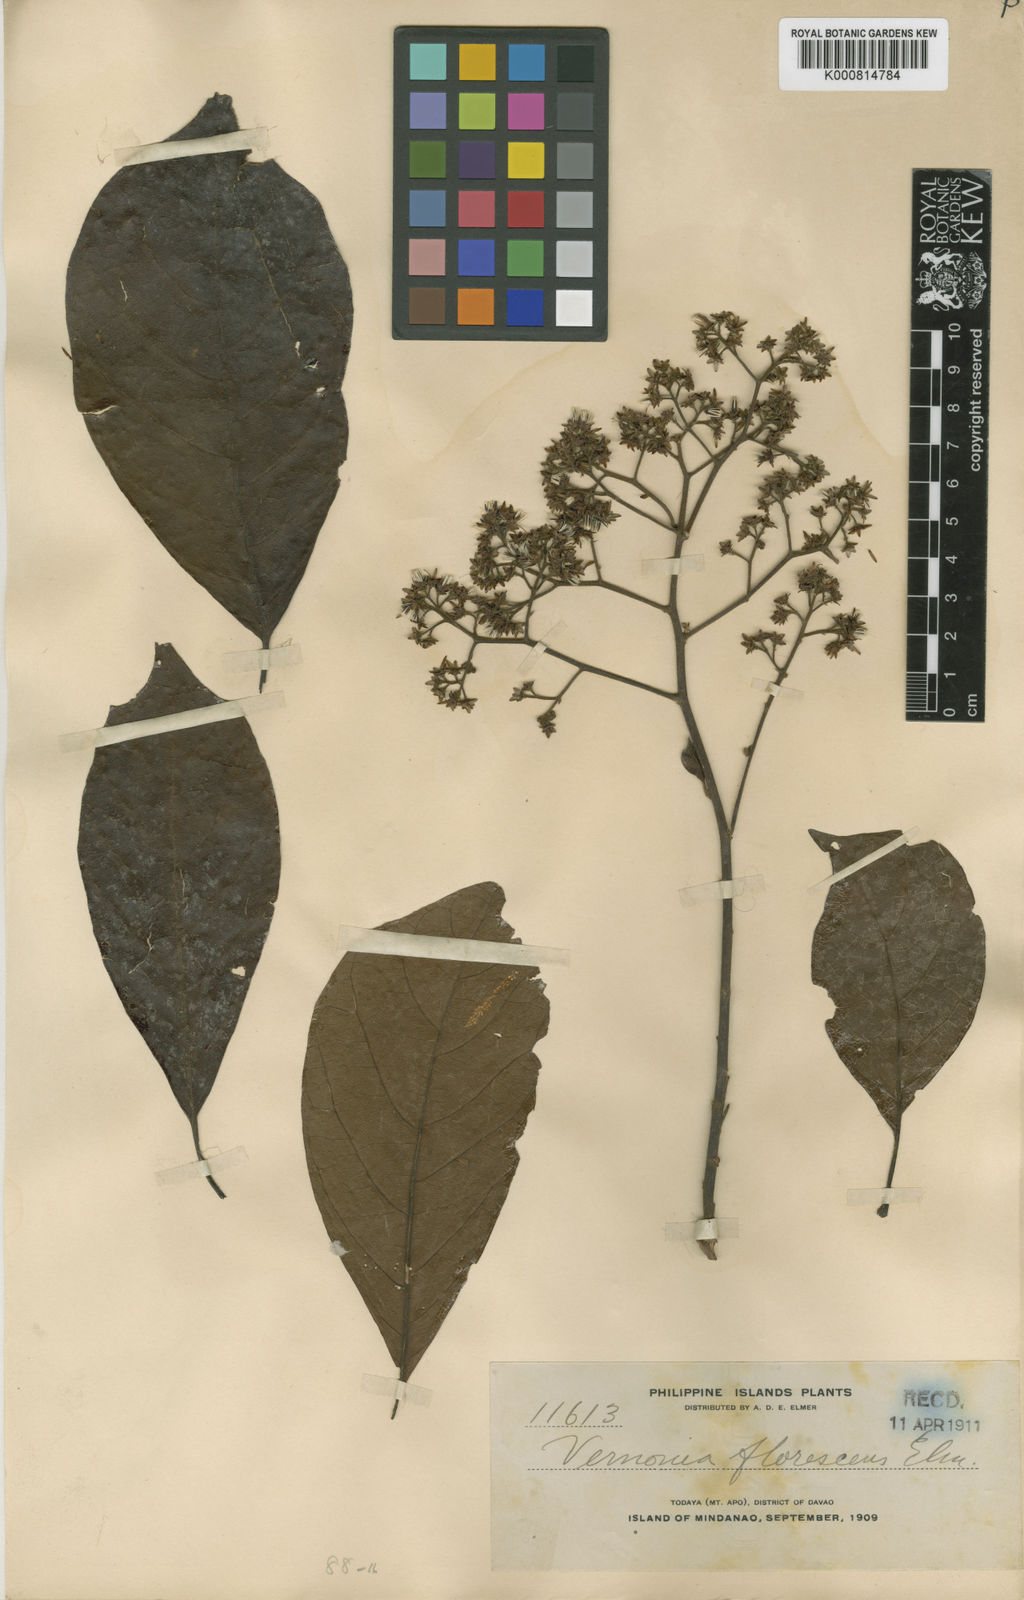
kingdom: Plantae
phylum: Tracheophyta
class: Magnoliopsida
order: Asterales
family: Asteraceae
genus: Strobocalyx
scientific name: Strobocalyx arborea
